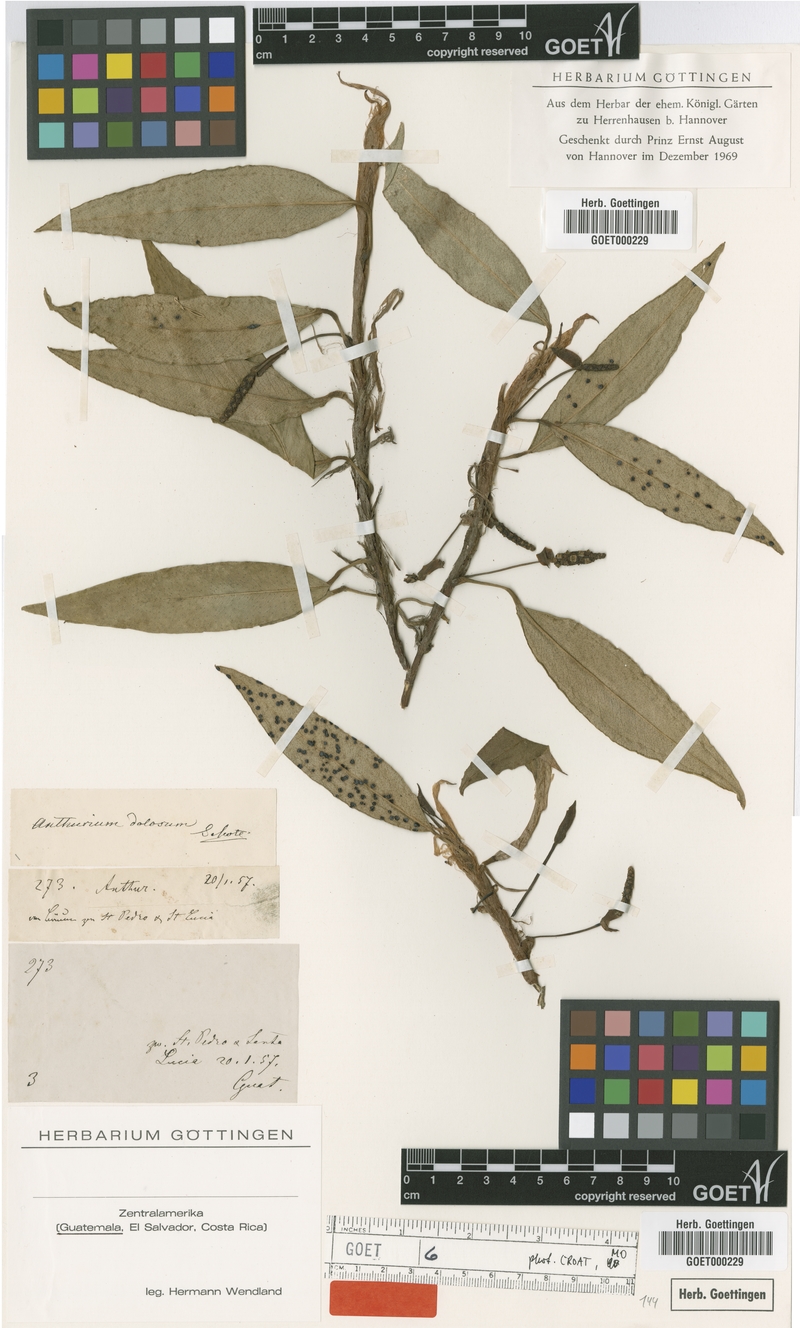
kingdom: Plantae
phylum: Tracheophyta
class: Liliopsida
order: Alismatales
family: Araceae
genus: Anthurium
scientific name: Anthurium scandens
